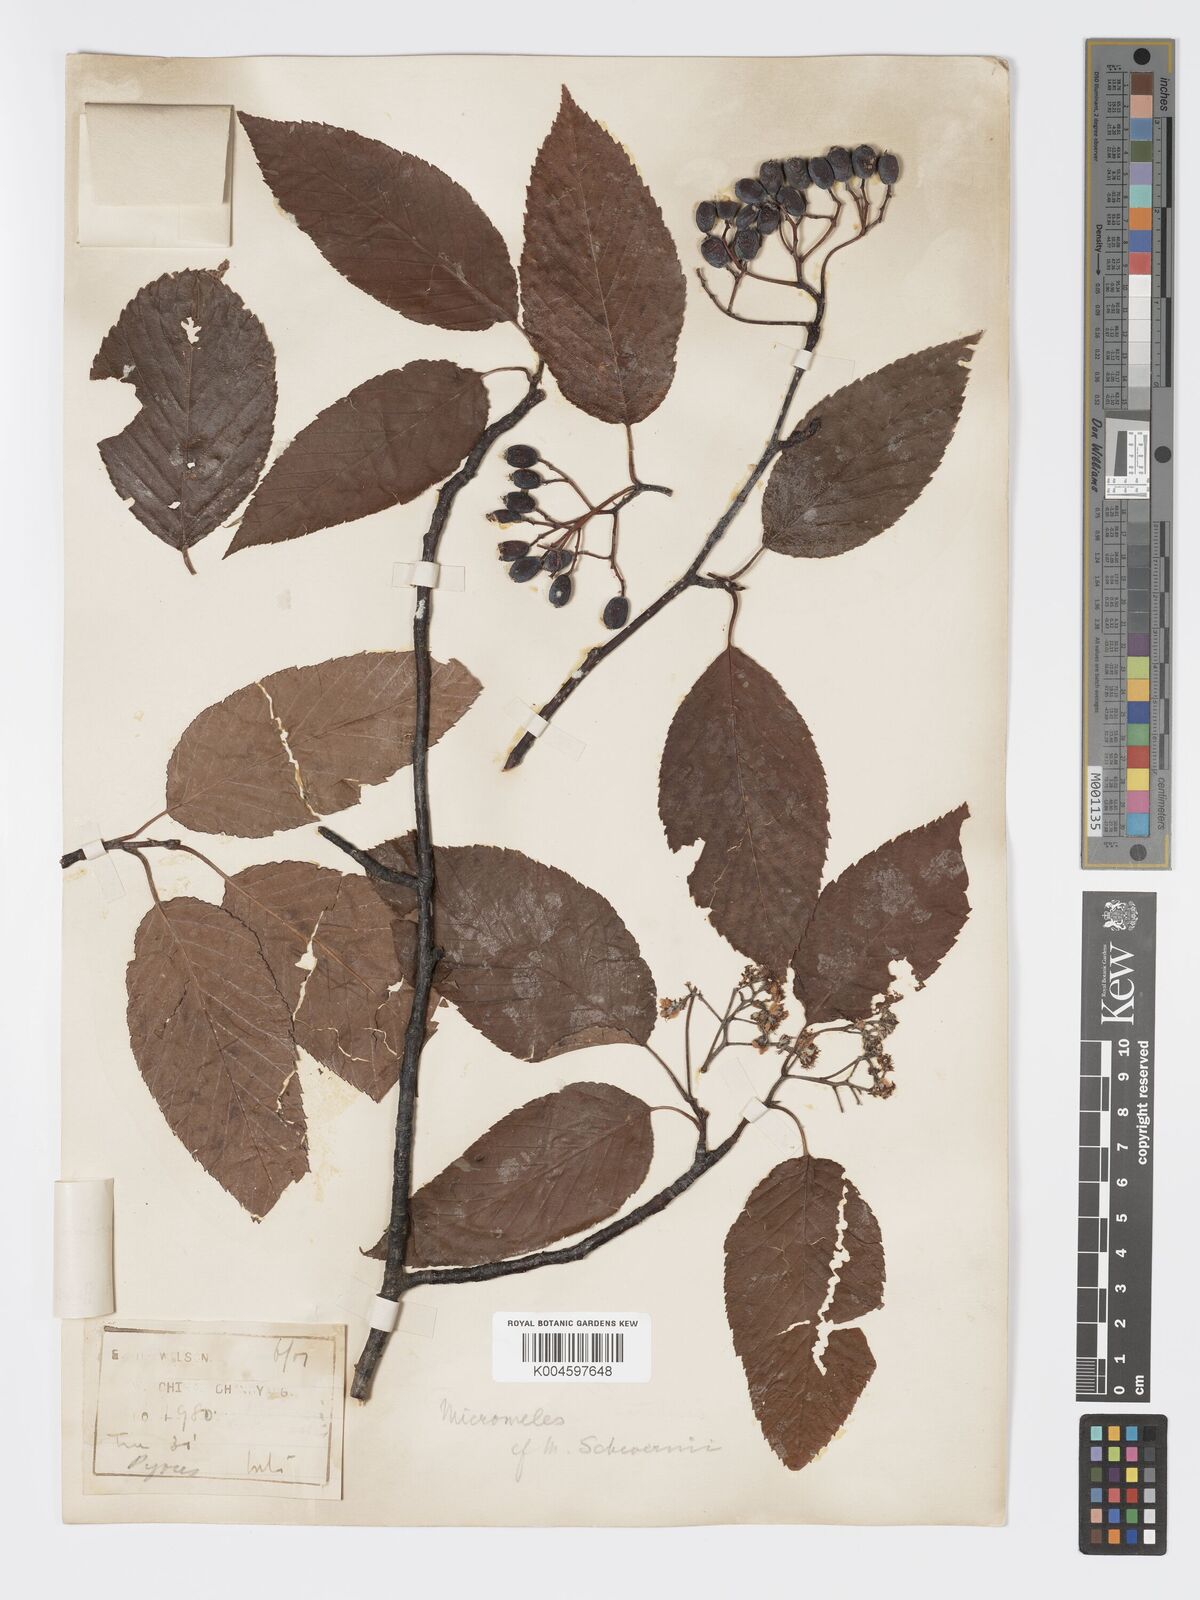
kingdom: Plantae
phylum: Tracheophyta
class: Magnoliopsida
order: Rosales
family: Rosaceae
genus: Sorbus
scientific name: Sorbus zahlbruckneri
